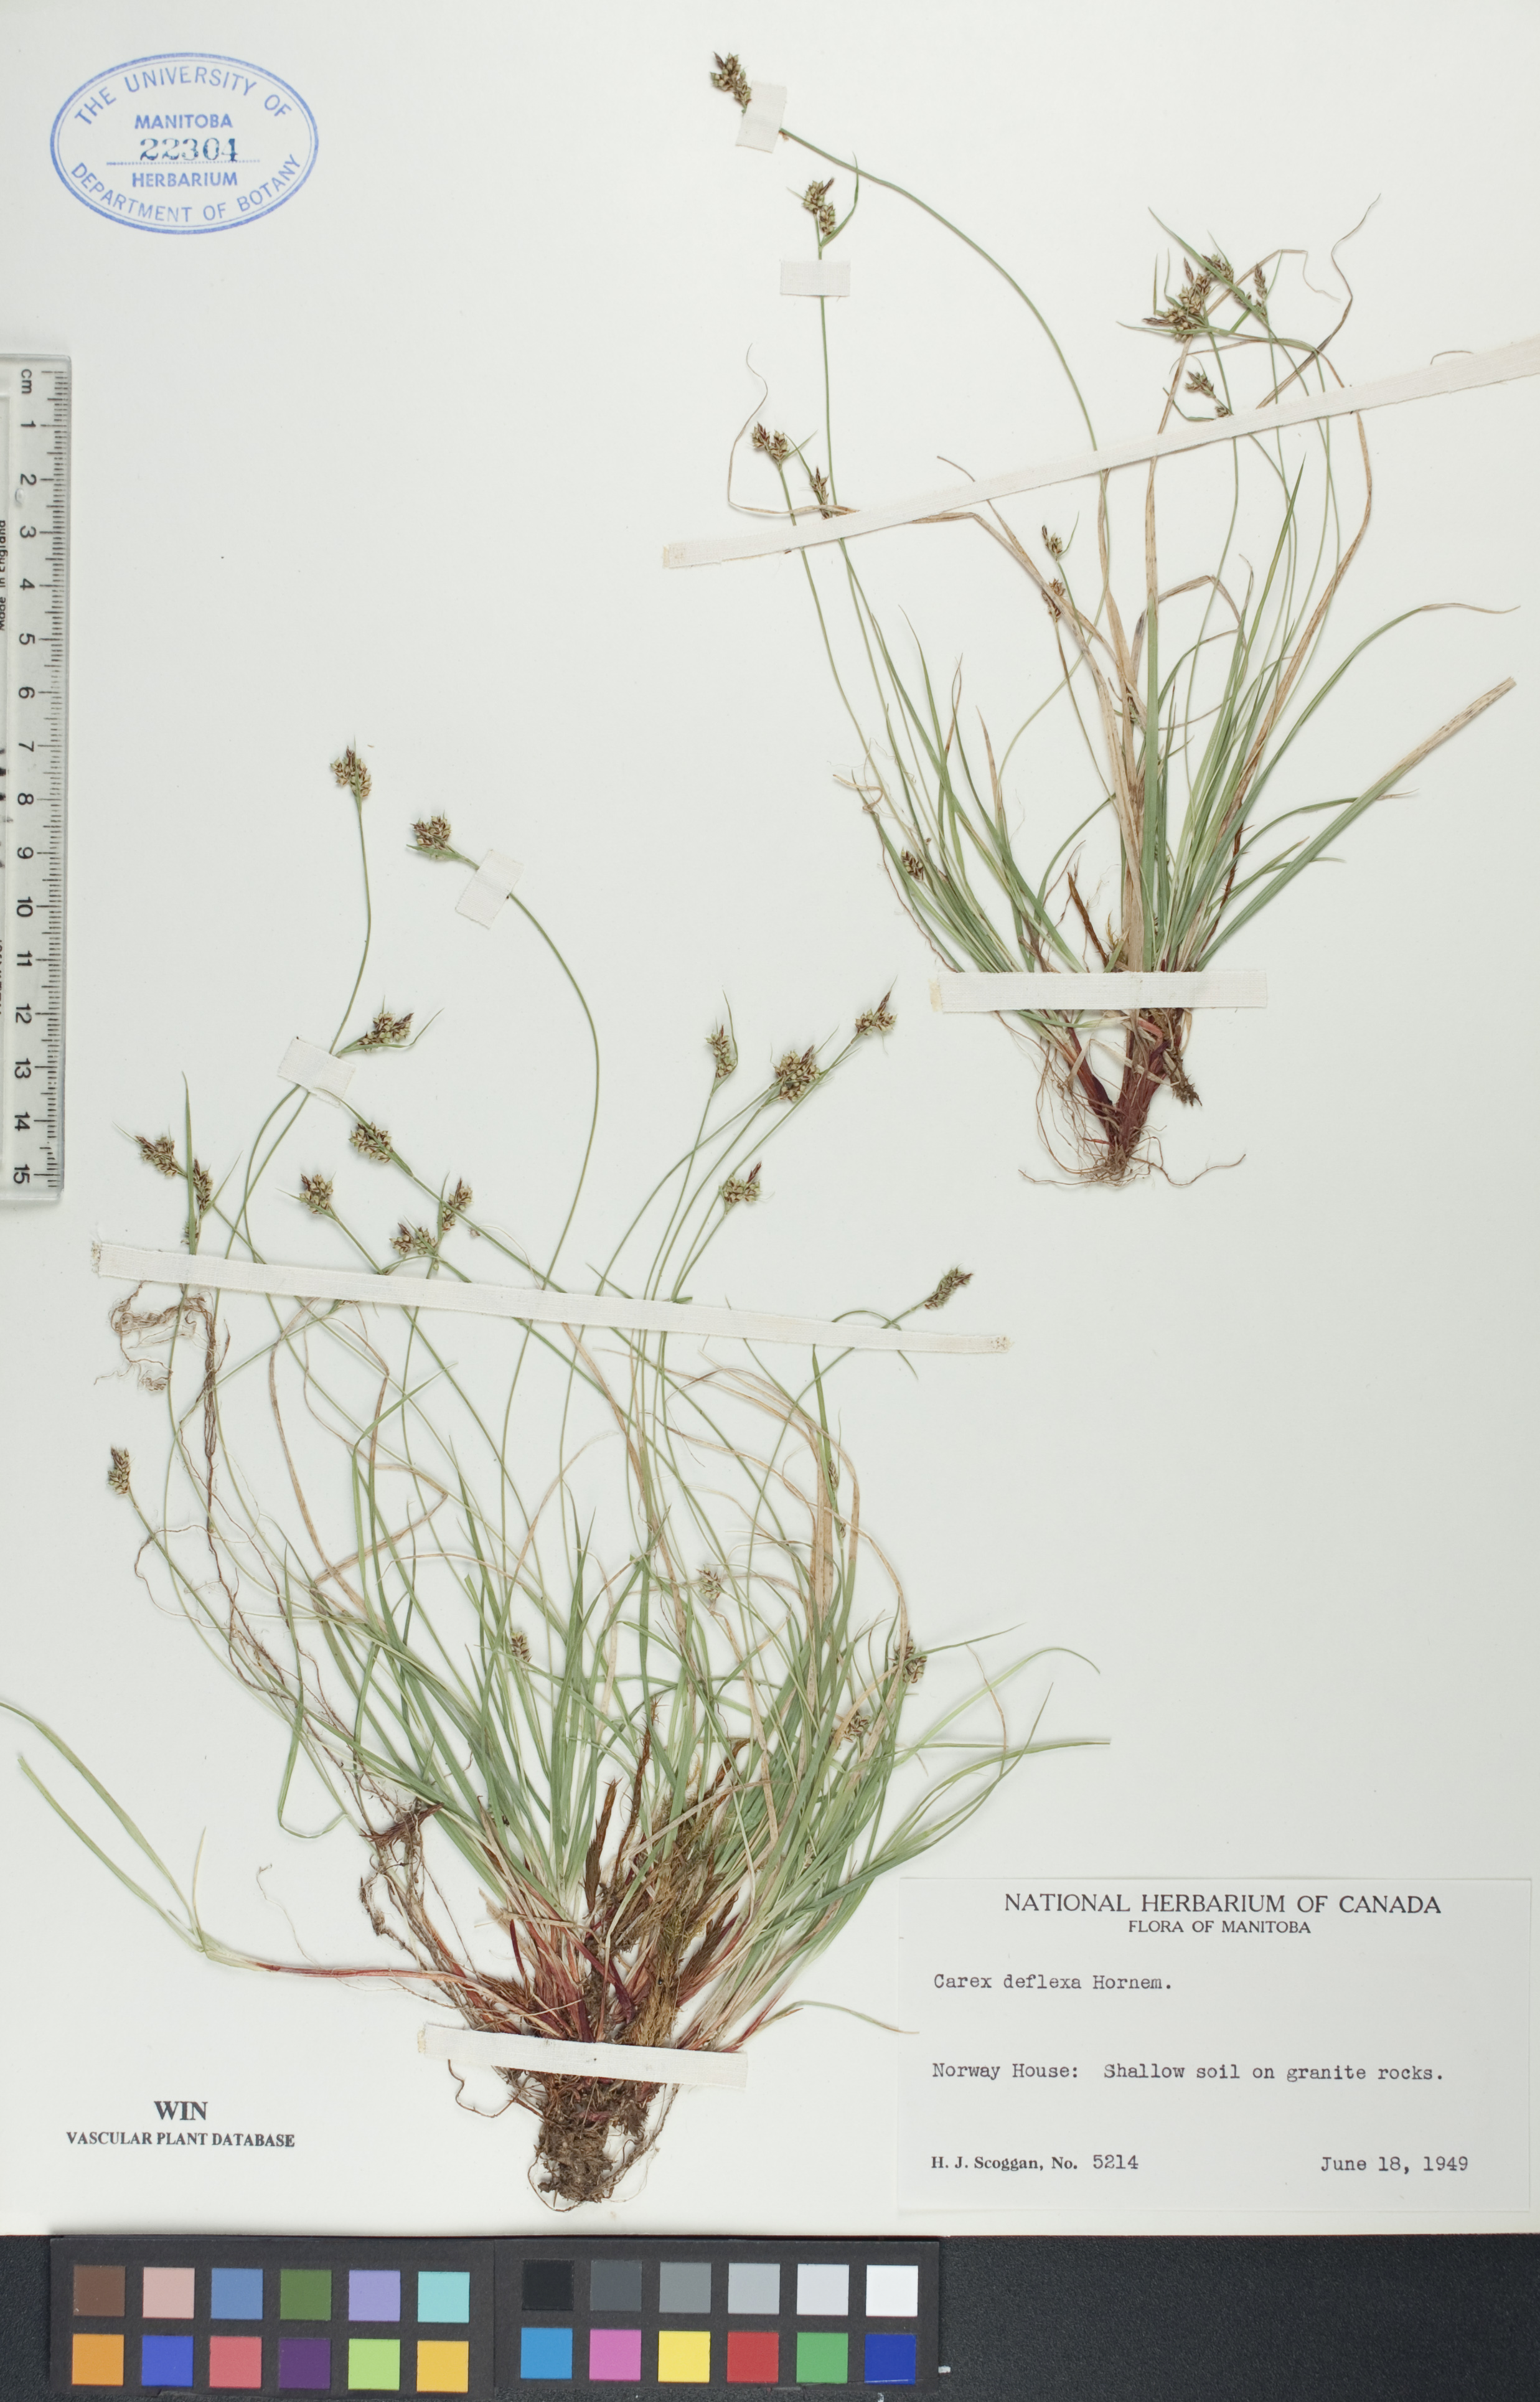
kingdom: Plantae
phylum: Tracheophyta
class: Liliopsida
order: Poales
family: Cyperaceae
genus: Carex
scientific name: Carex deflexa
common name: Bent northern sedge
